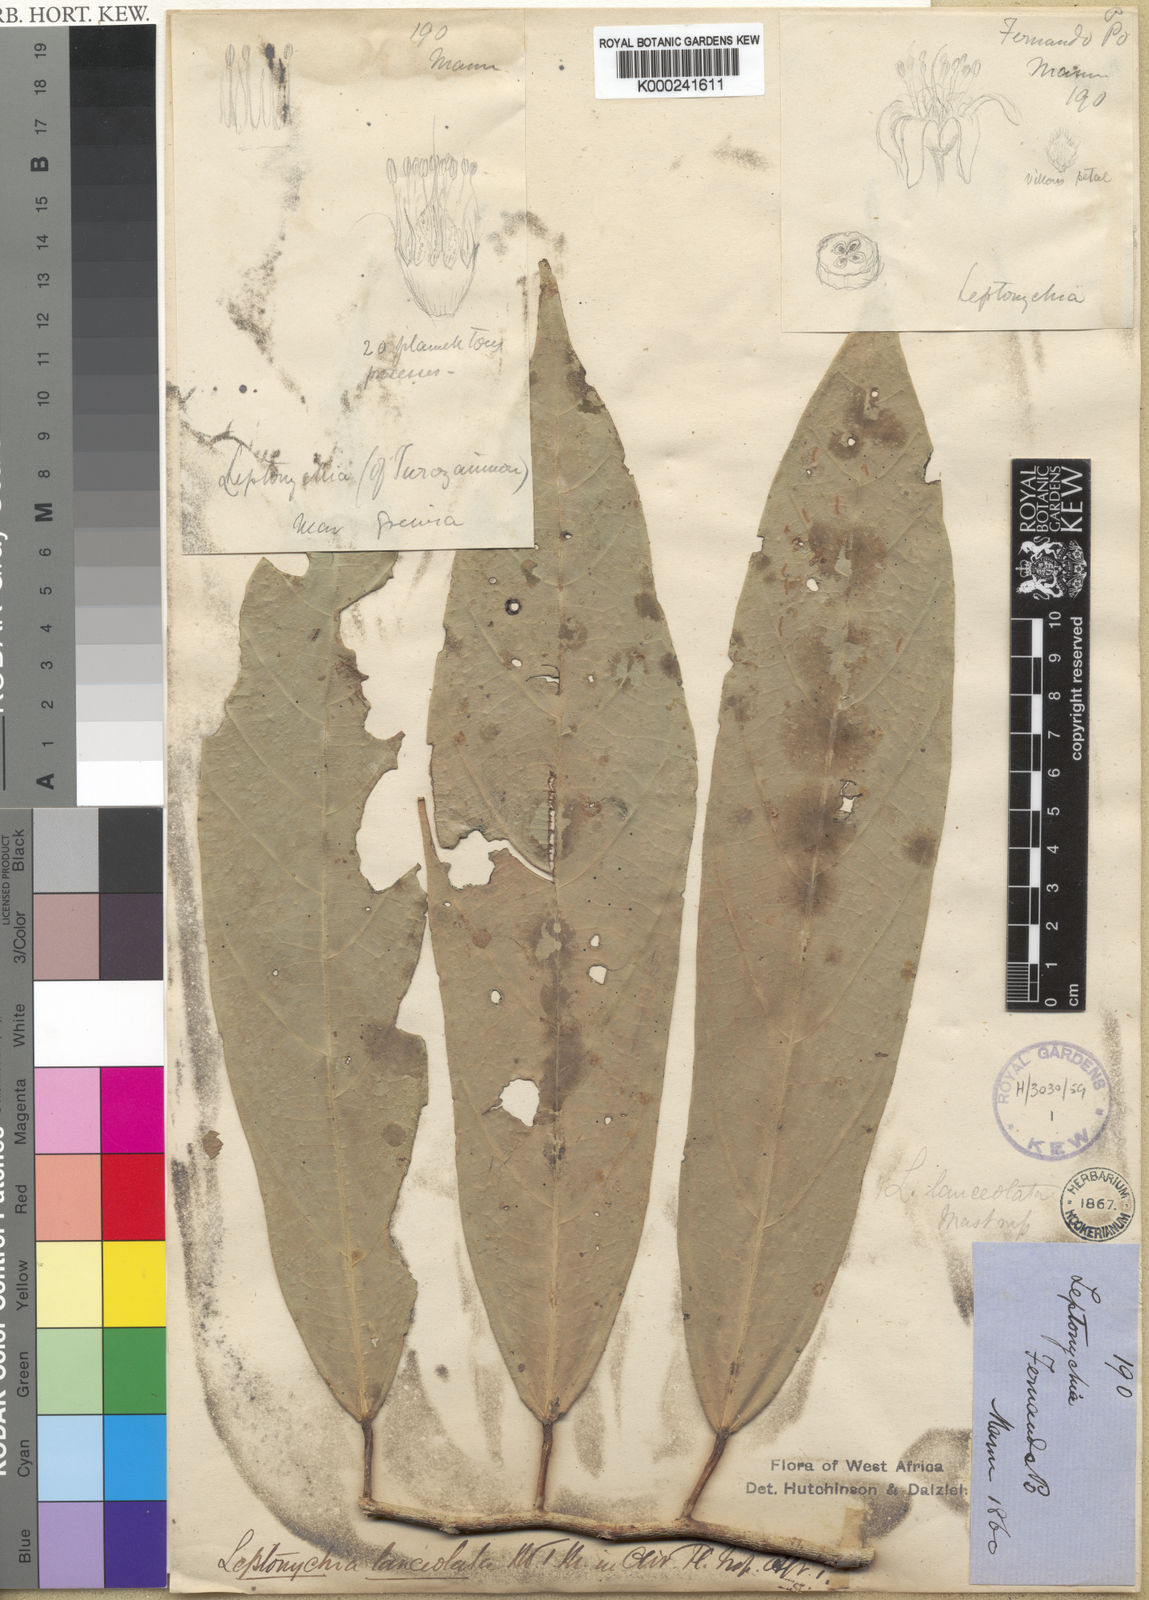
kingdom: Plantae
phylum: Tracheophyta
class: Magnoliopsida
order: Malvales
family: Malvaceae
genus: Leptonychia
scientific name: Leptonychia lanceolata
